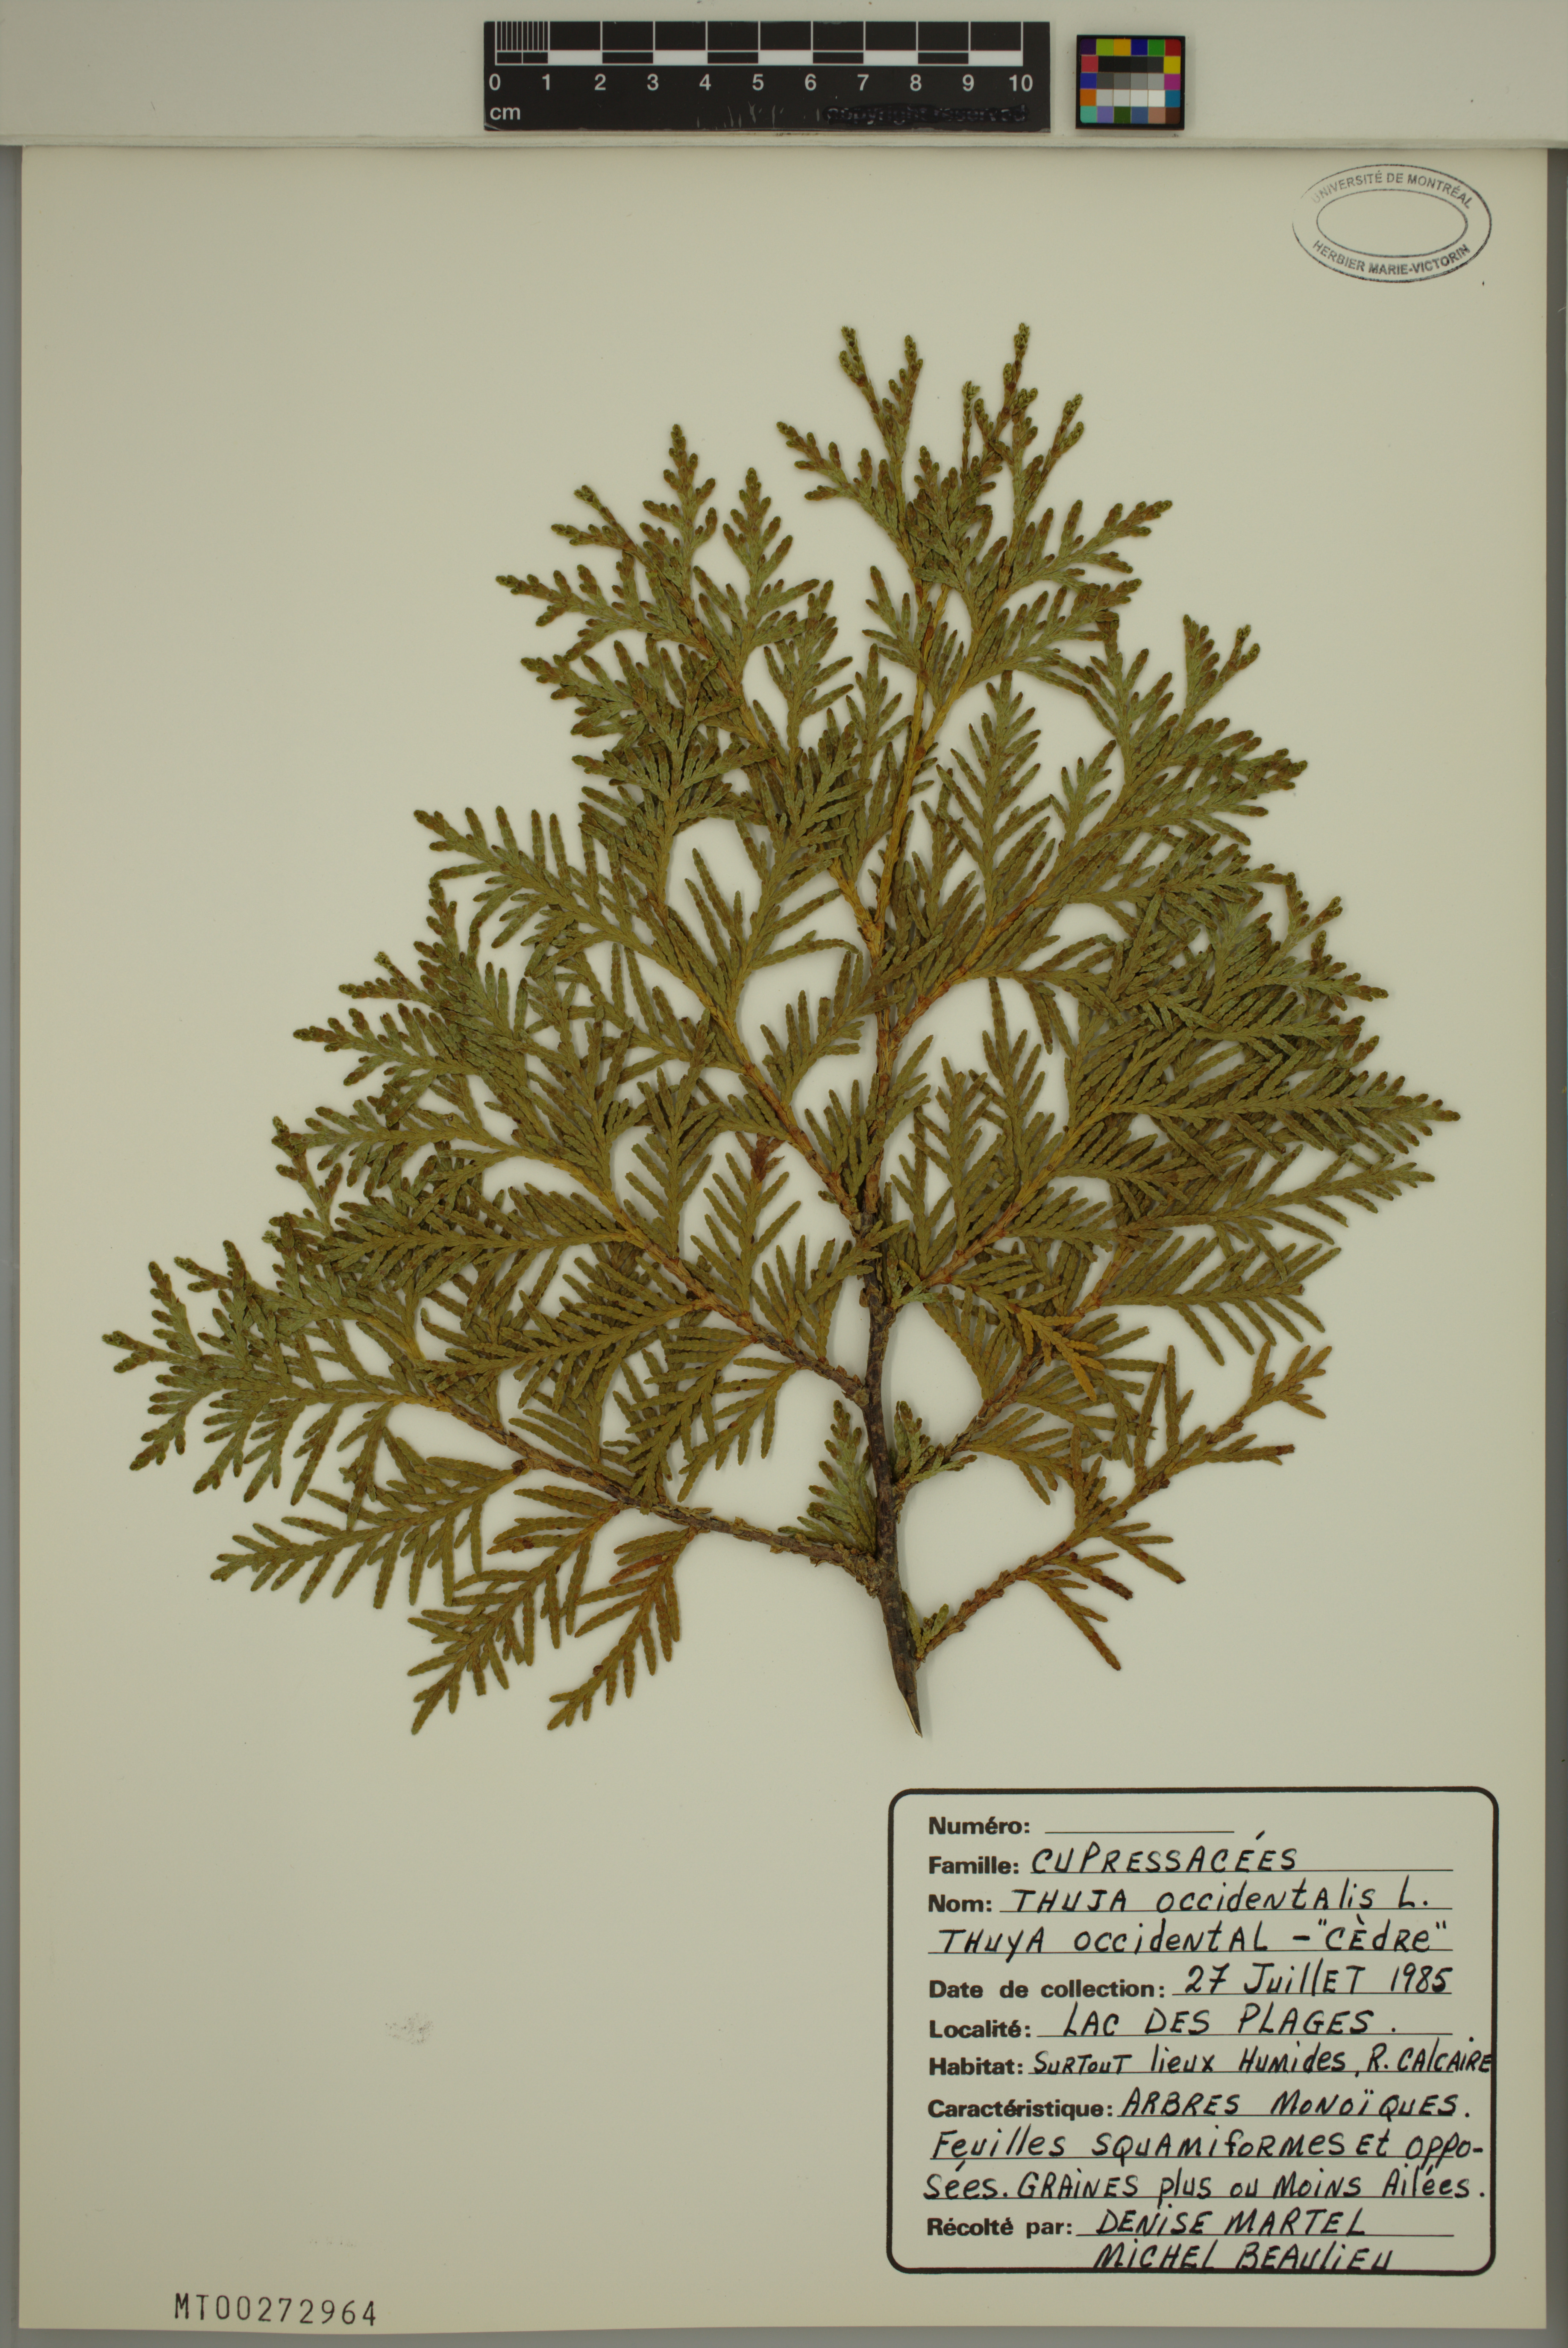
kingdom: Plantae
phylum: Tracheophyta
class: Pinopsida
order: Pinales
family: Cupressaceae
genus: Thuja
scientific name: Thuja occidentalis
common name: Northern white-cedar
